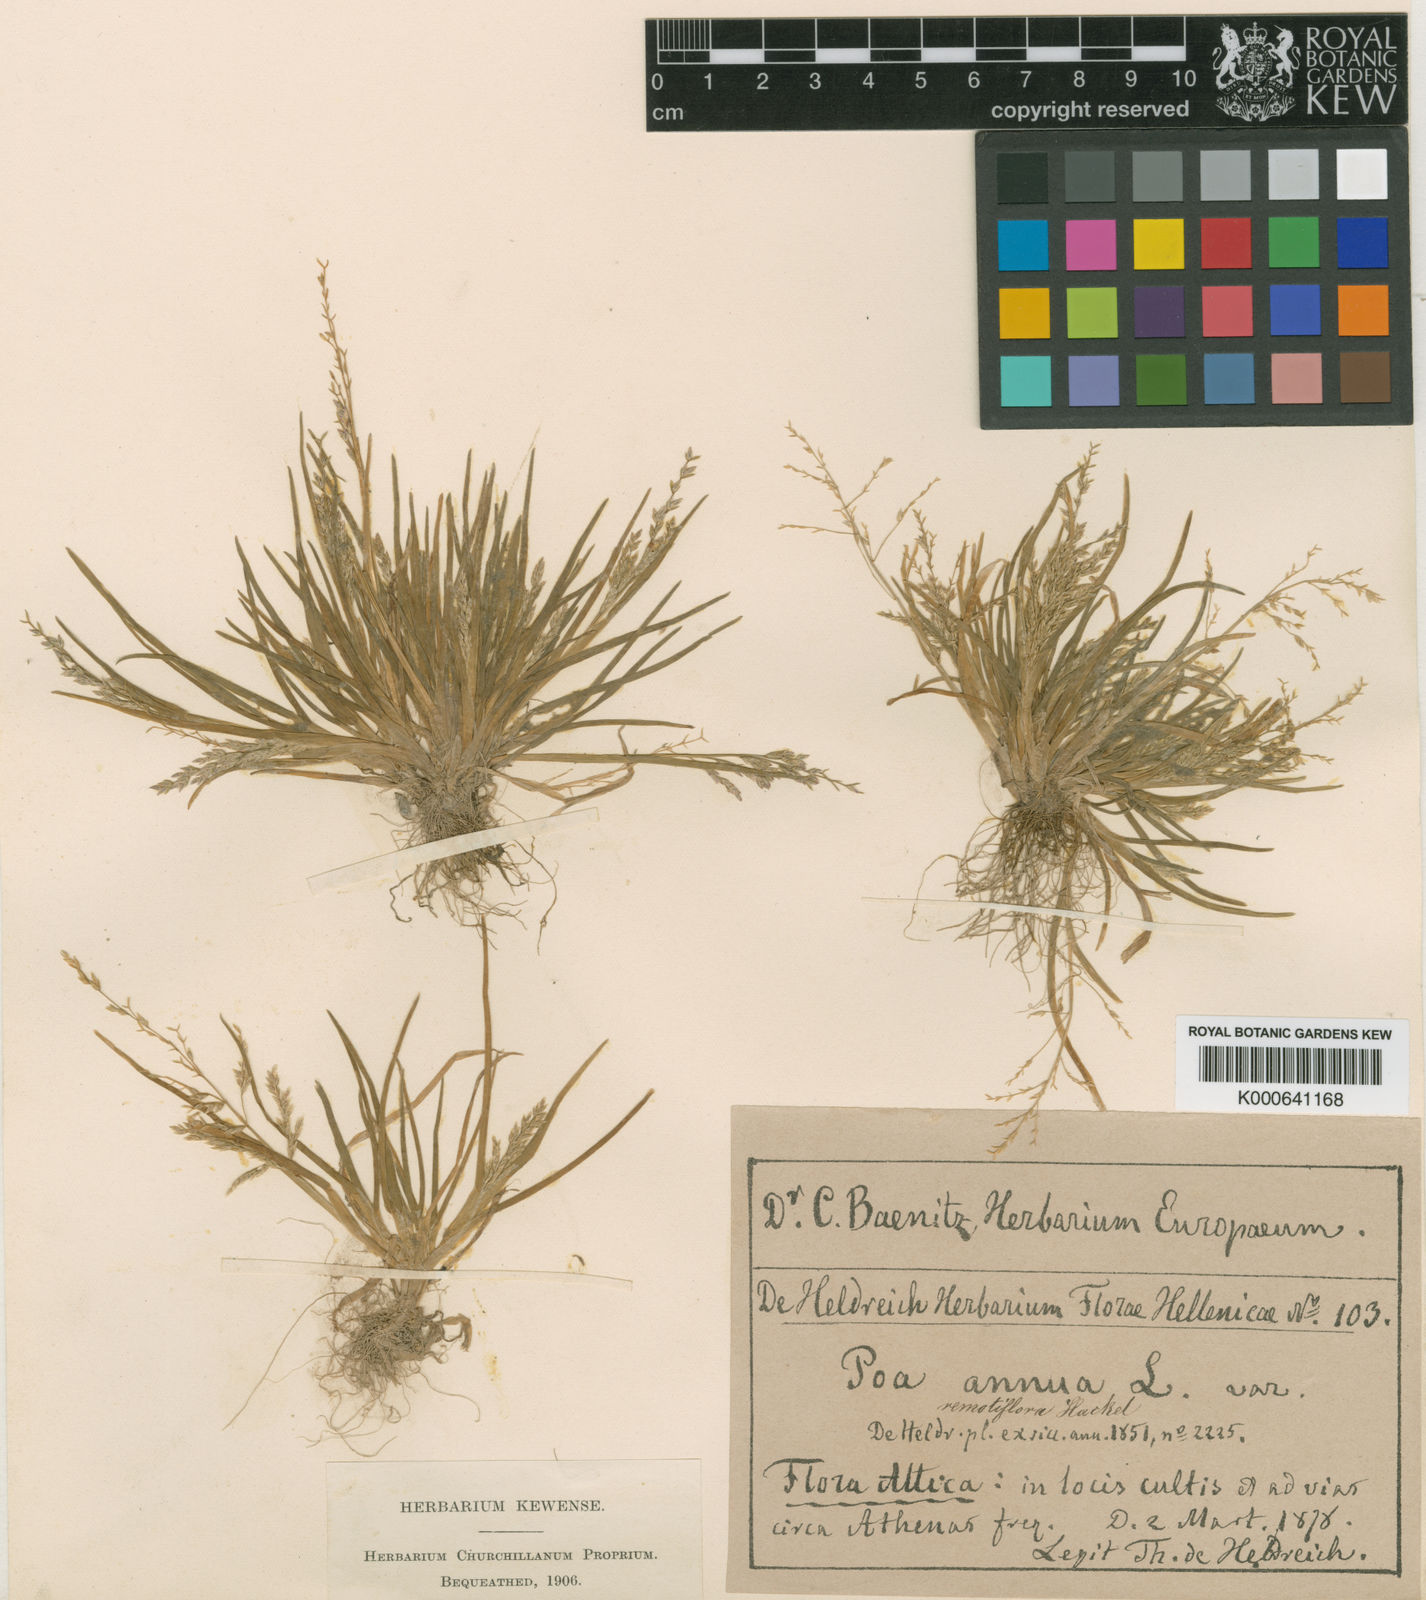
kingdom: Plantae
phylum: Tracheophyta
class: Liliopsida
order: Poales
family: Poaceae
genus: Poa
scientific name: Poa infirma
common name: Weak bluegrass
